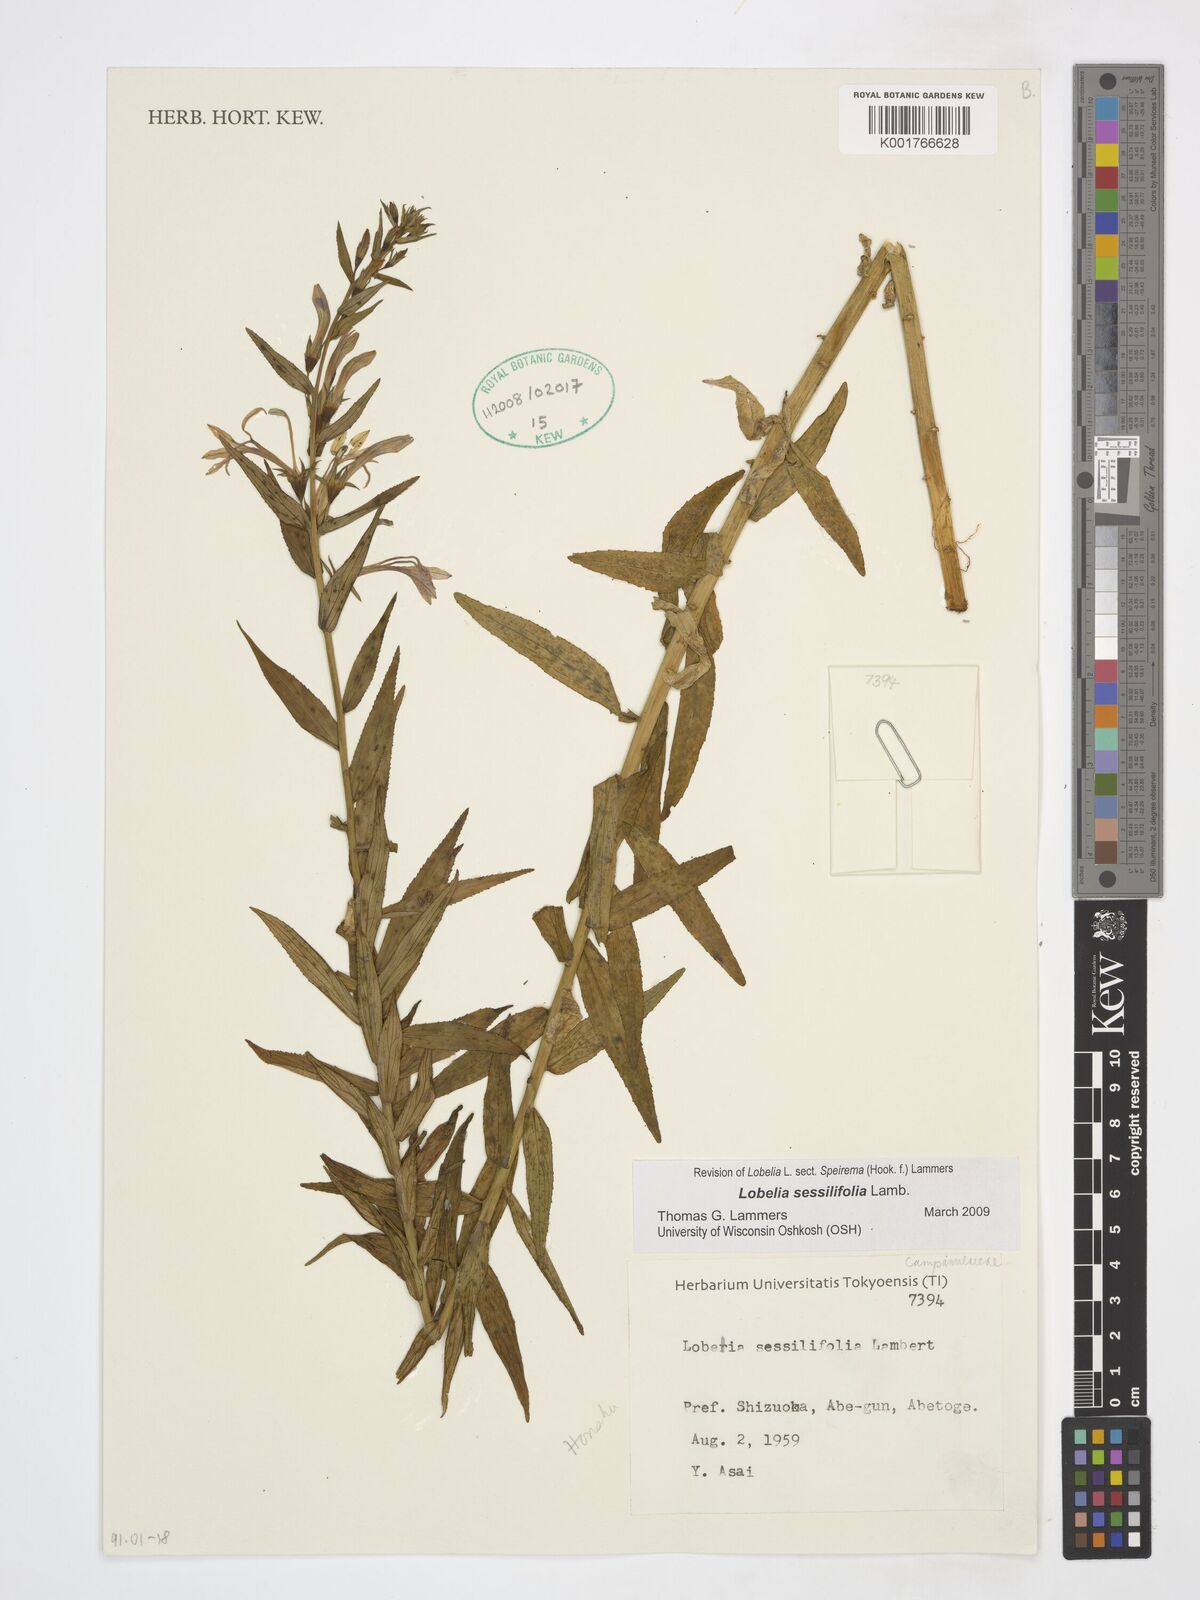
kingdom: Plantae
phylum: Tracheophyta
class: Magnoliopsida
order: Asterales
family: Campanulaceae
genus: Lobelia
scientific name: Lobelia sessilifolia
